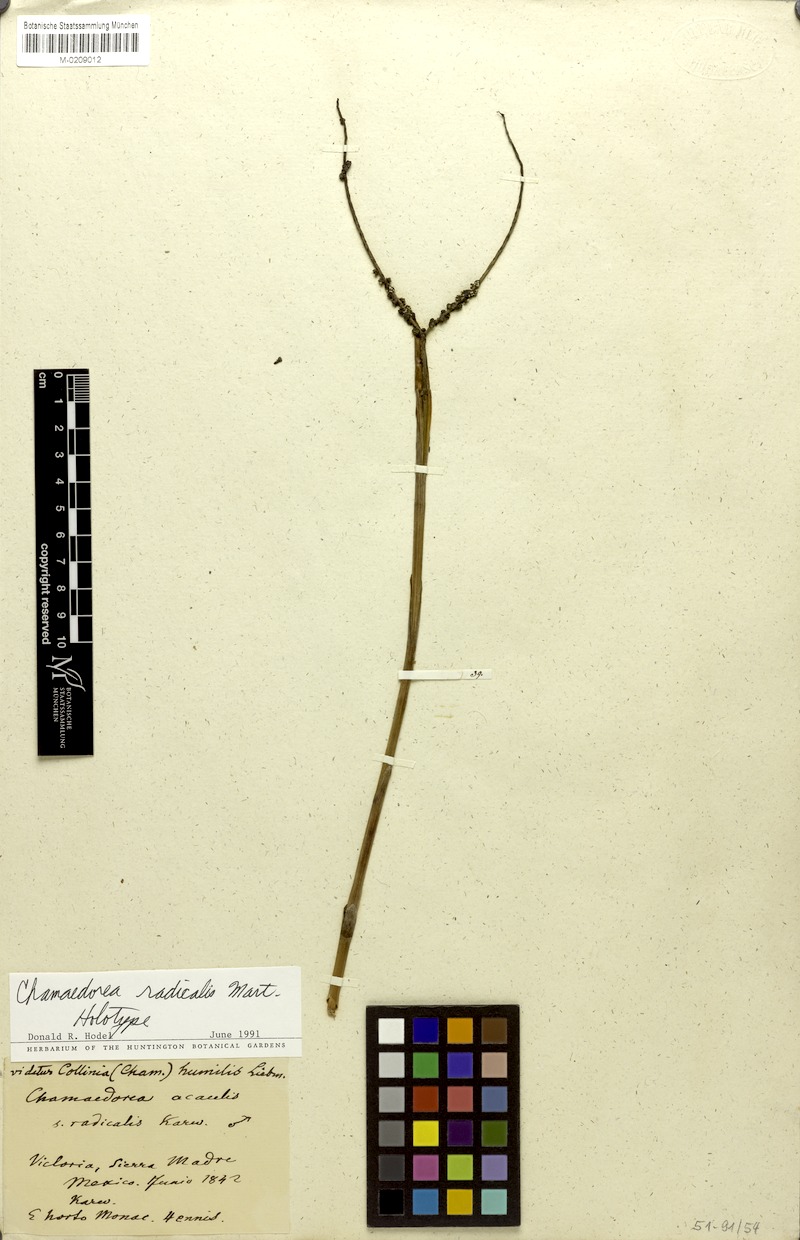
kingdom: Plantae
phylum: Tracheophyta
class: Liliopsida
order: Arecales
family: Arecaceae
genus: Chamaedorea
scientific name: Chamaedorea radicalis
